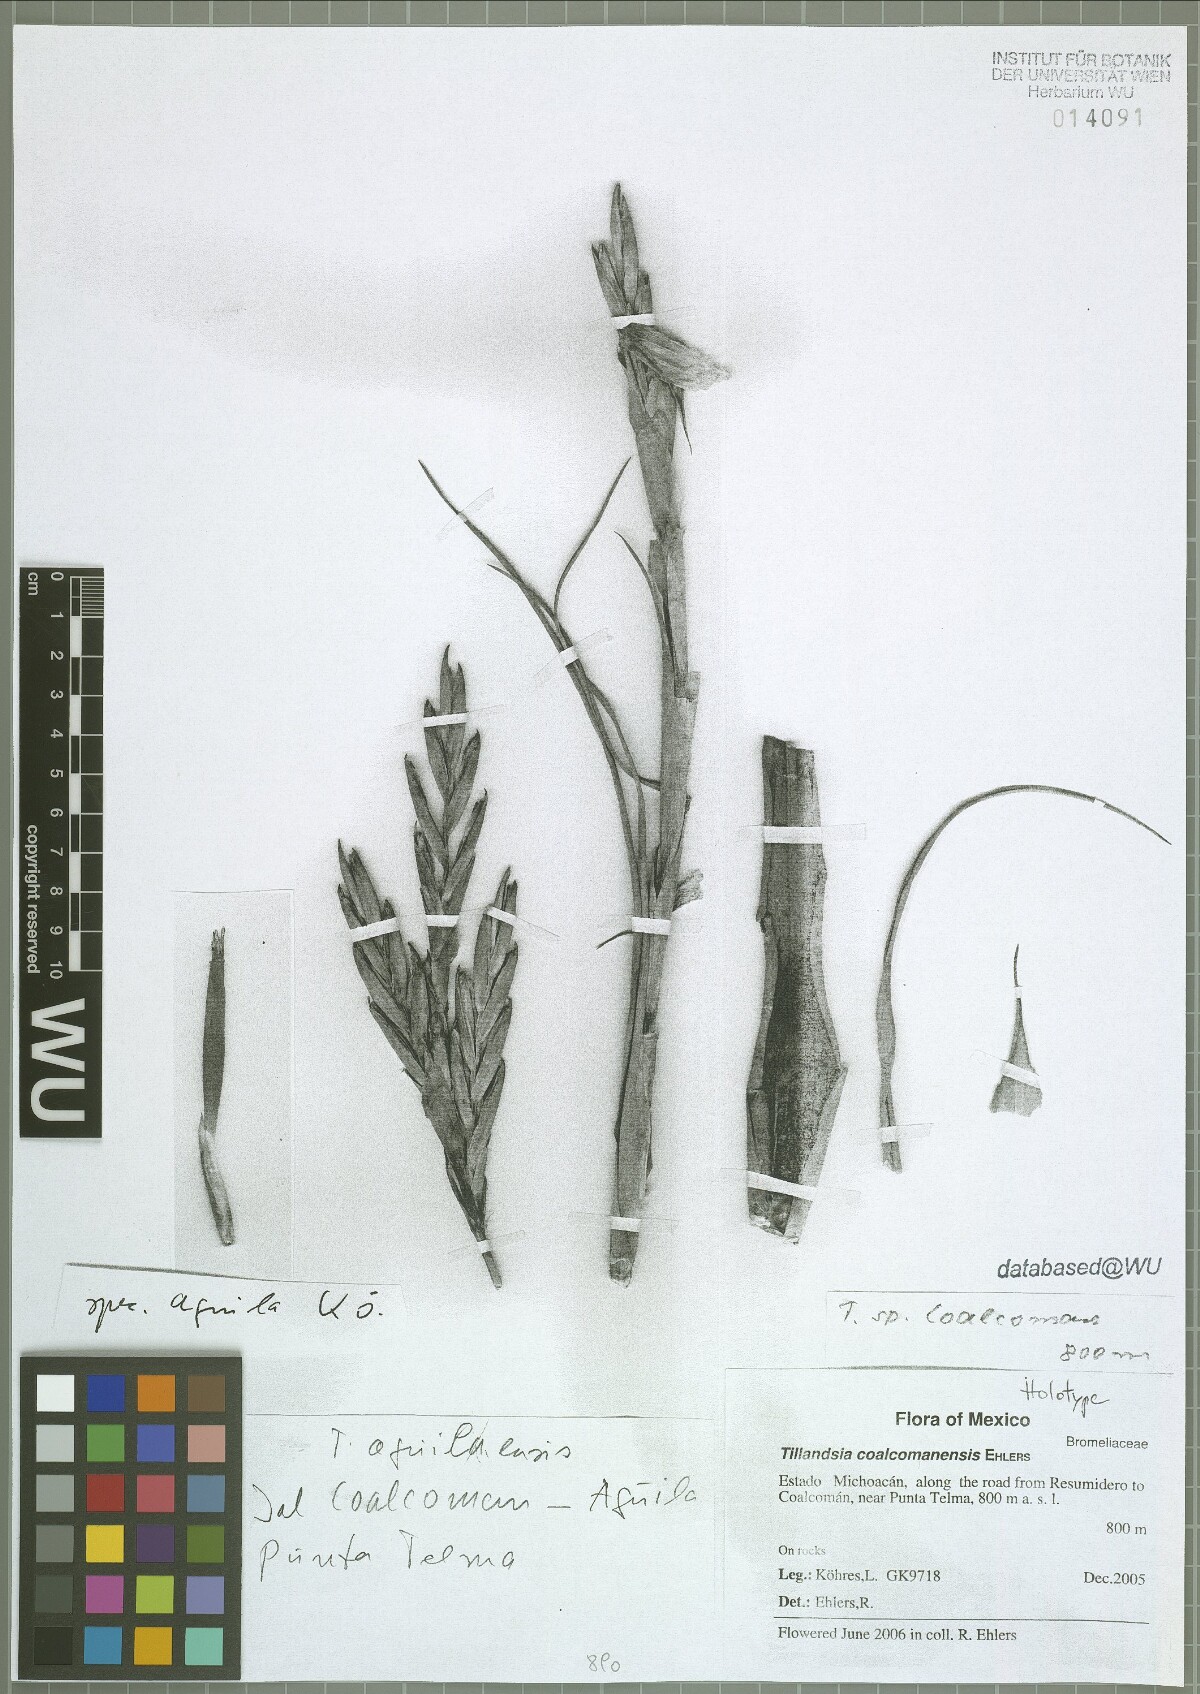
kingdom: Plantae
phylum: Tracheophyta
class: Liliopsida
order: Poales
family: Bromeliaceae
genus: Tillandsia
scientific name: Tillandsia coalcomanensis
